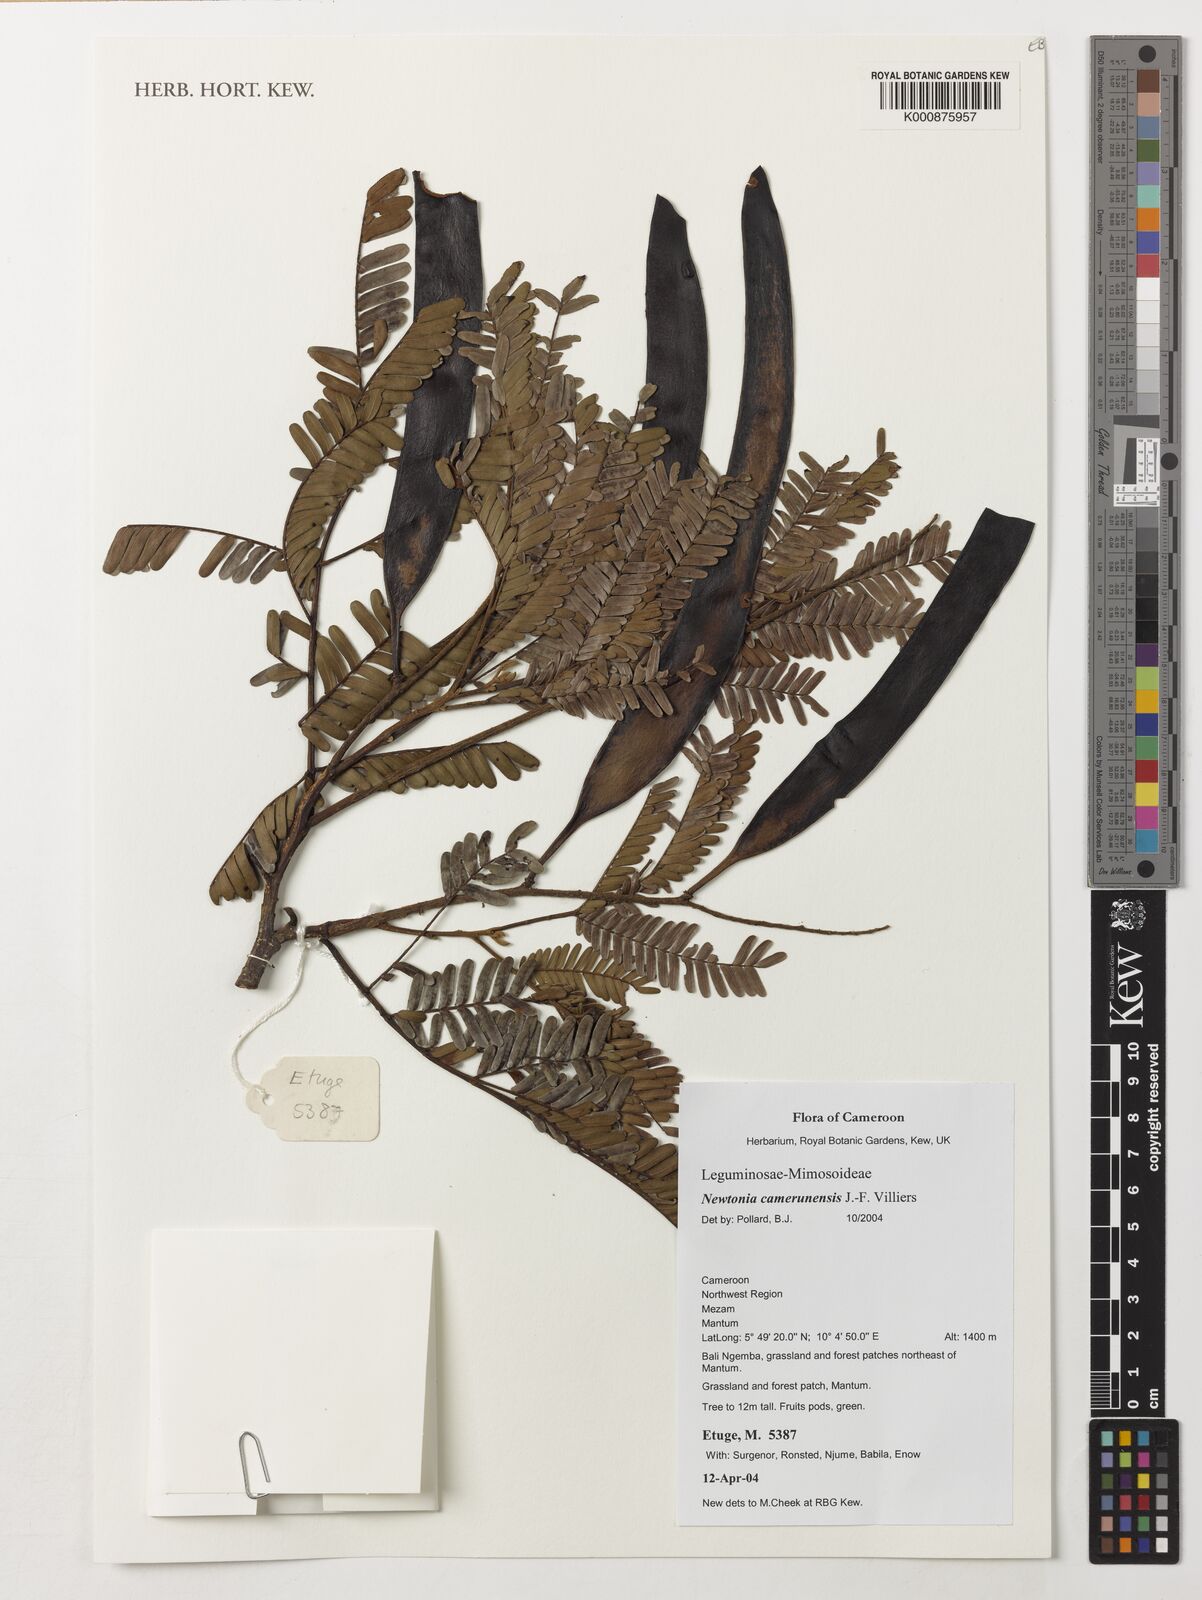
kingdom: Plantae
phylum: Tracheophyta
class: Magnoliopsida
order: Fabales
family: Fabaceae
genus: Newtonia
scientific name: Newtonia camerunensis
